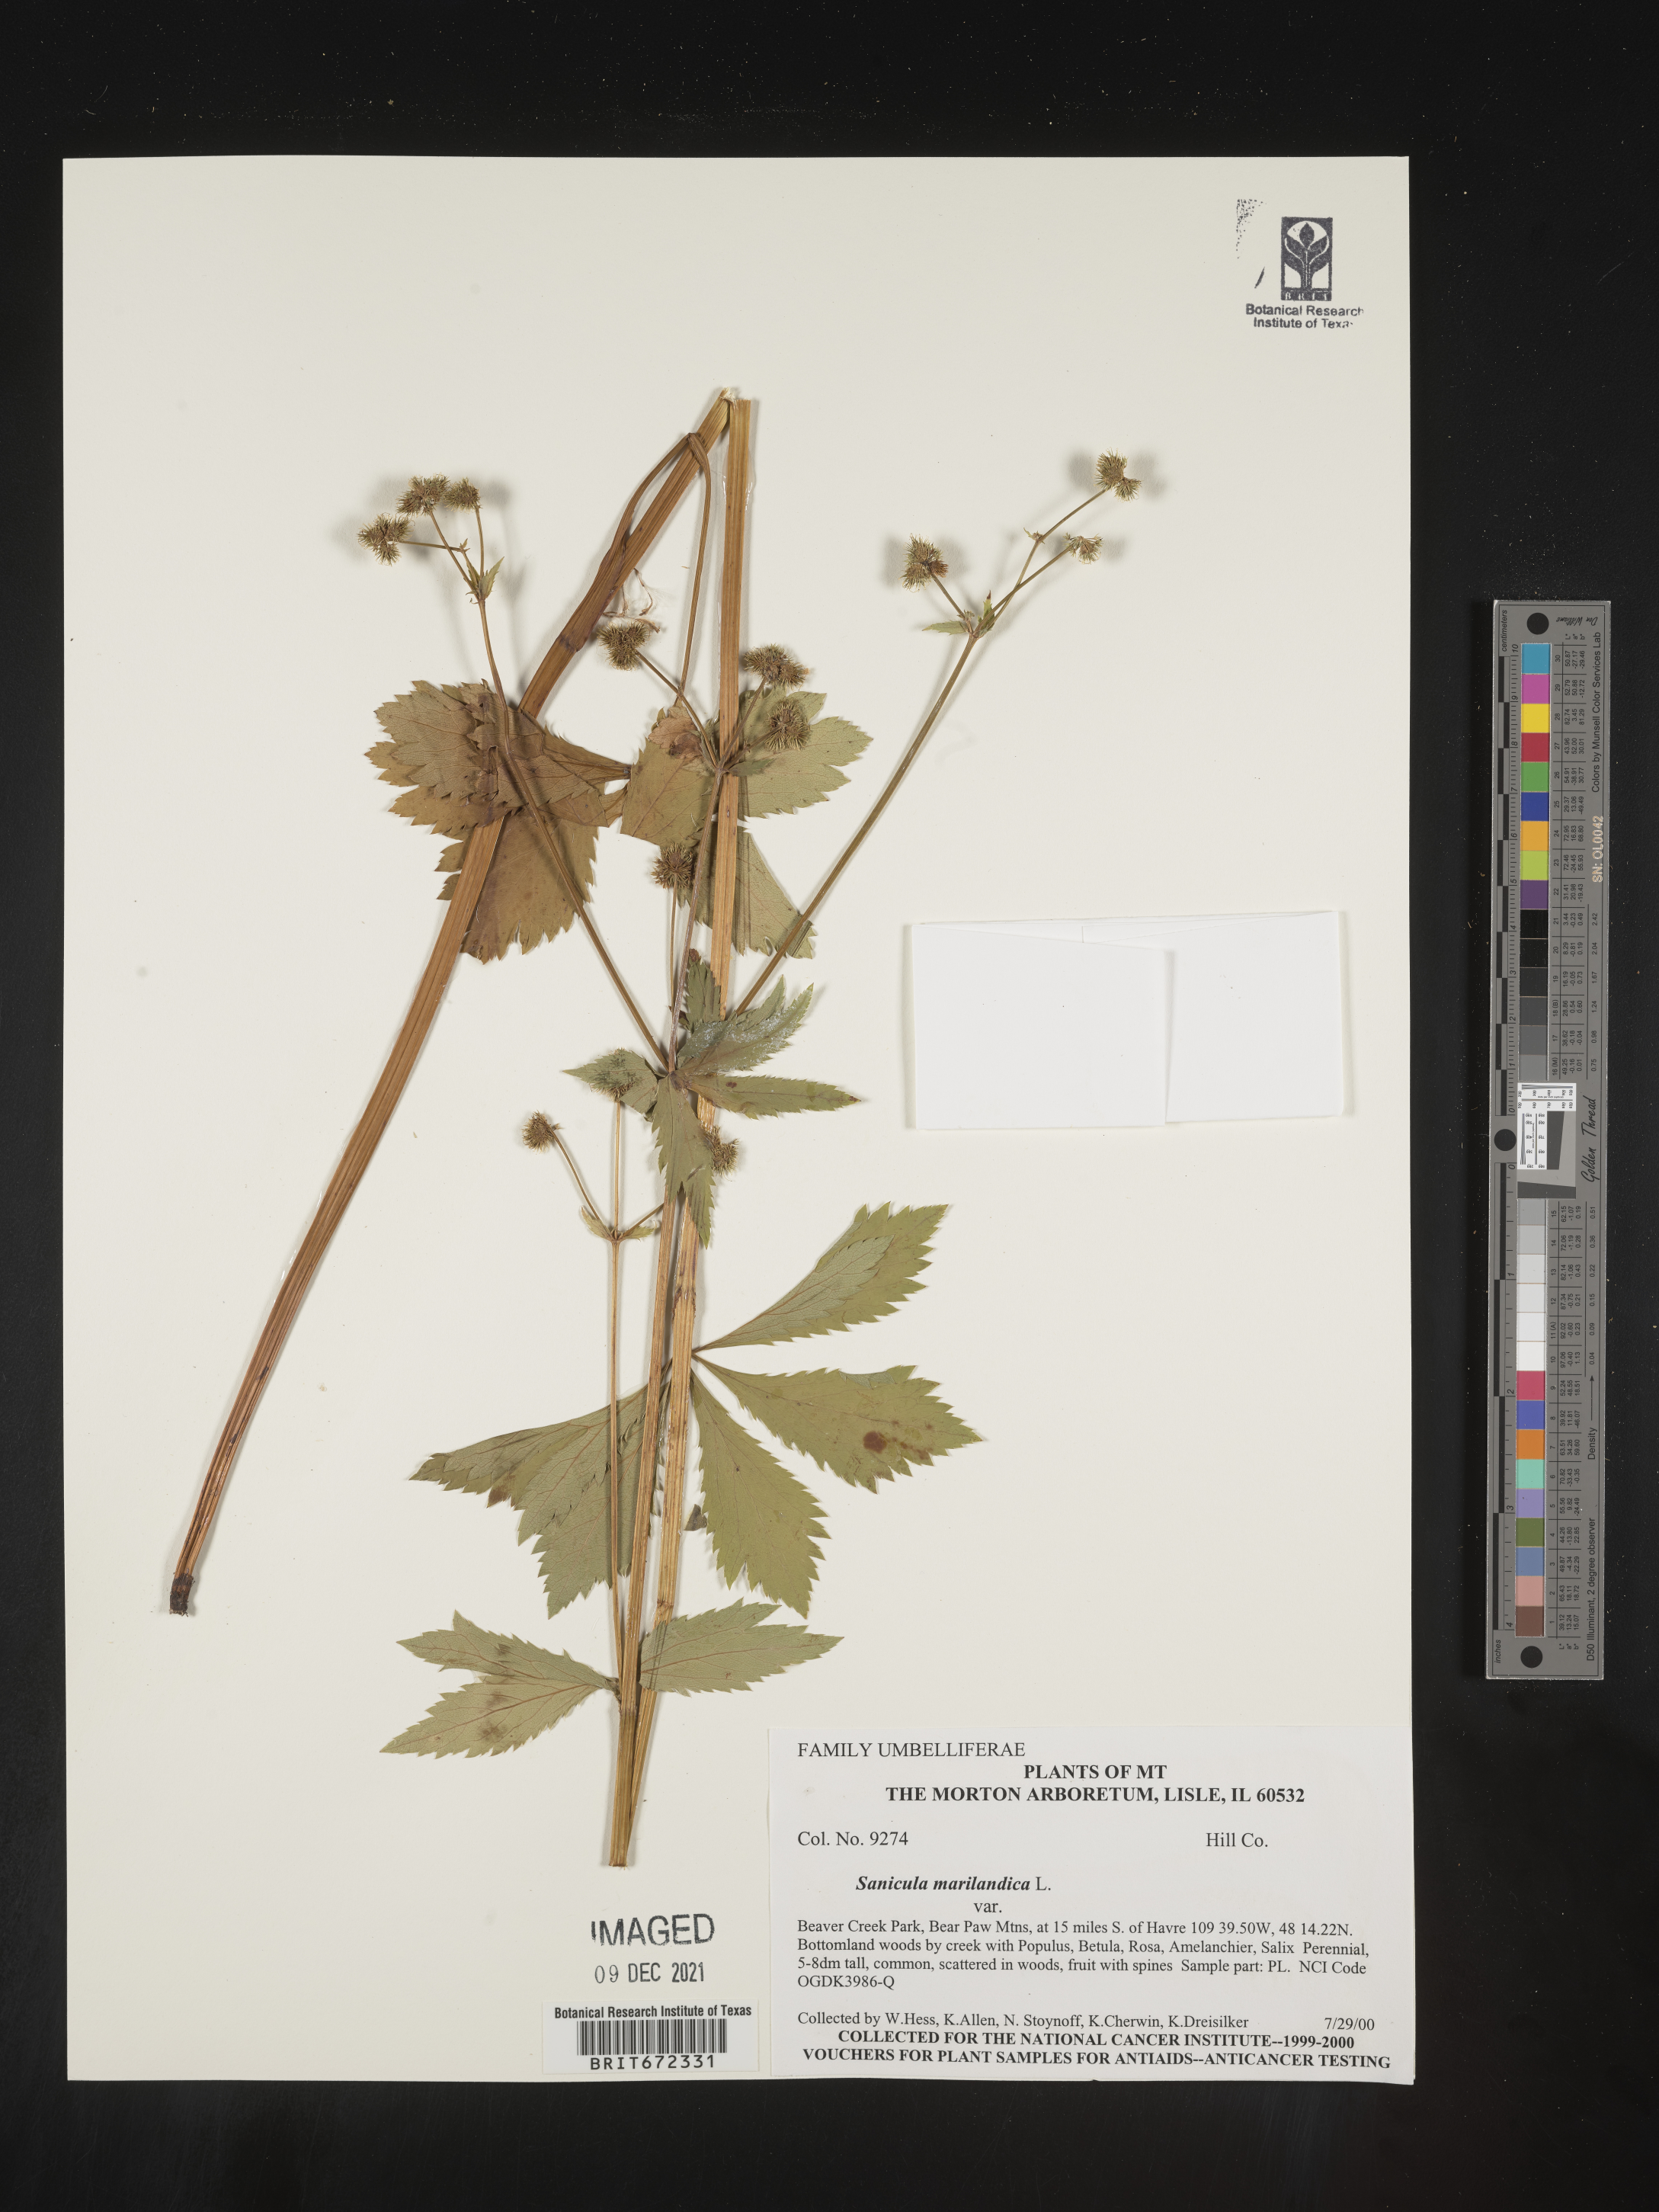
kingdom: Plantae
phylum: Tracheophyta
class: Magnoliopsida
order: Apiales
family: Apiaceae
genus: Sanicula
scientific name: Sanicula marilandica
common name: Black snakeroot
